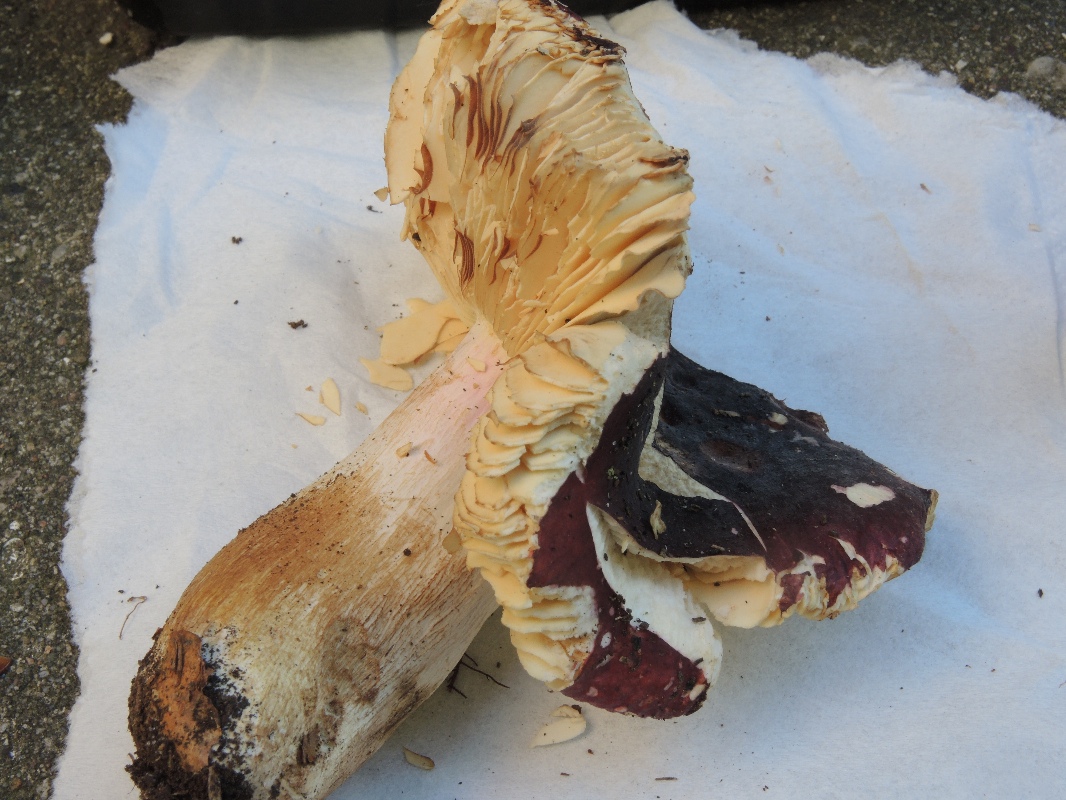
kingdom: Fungi
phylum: Basidiomycota
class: Agaricomycetes
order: Russulales
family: Russulaceae
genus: Russula
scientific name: Russula xerampelina
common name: hummer-skørhat
